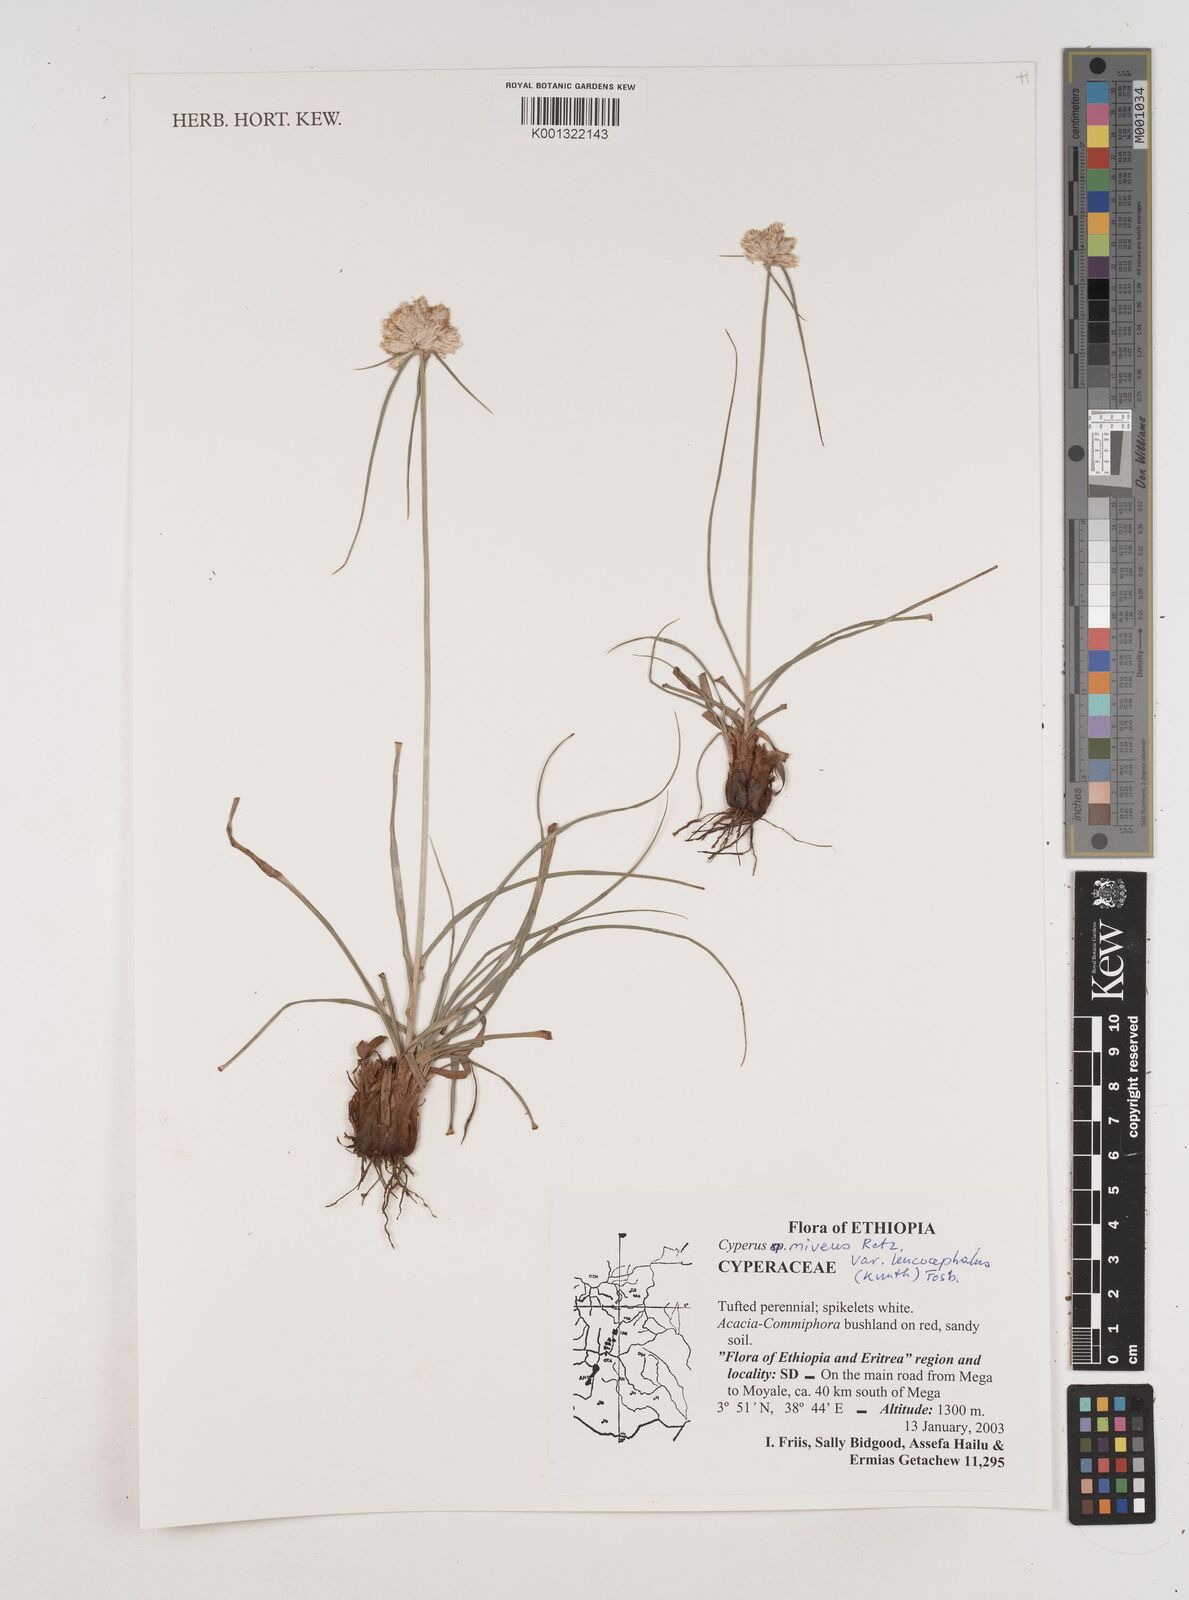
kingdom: Plantae
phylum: Tracheophyta
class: Liliopsida
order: Poales
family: Cyperaceae
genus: Cyperus
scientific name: Cyperus niveus
